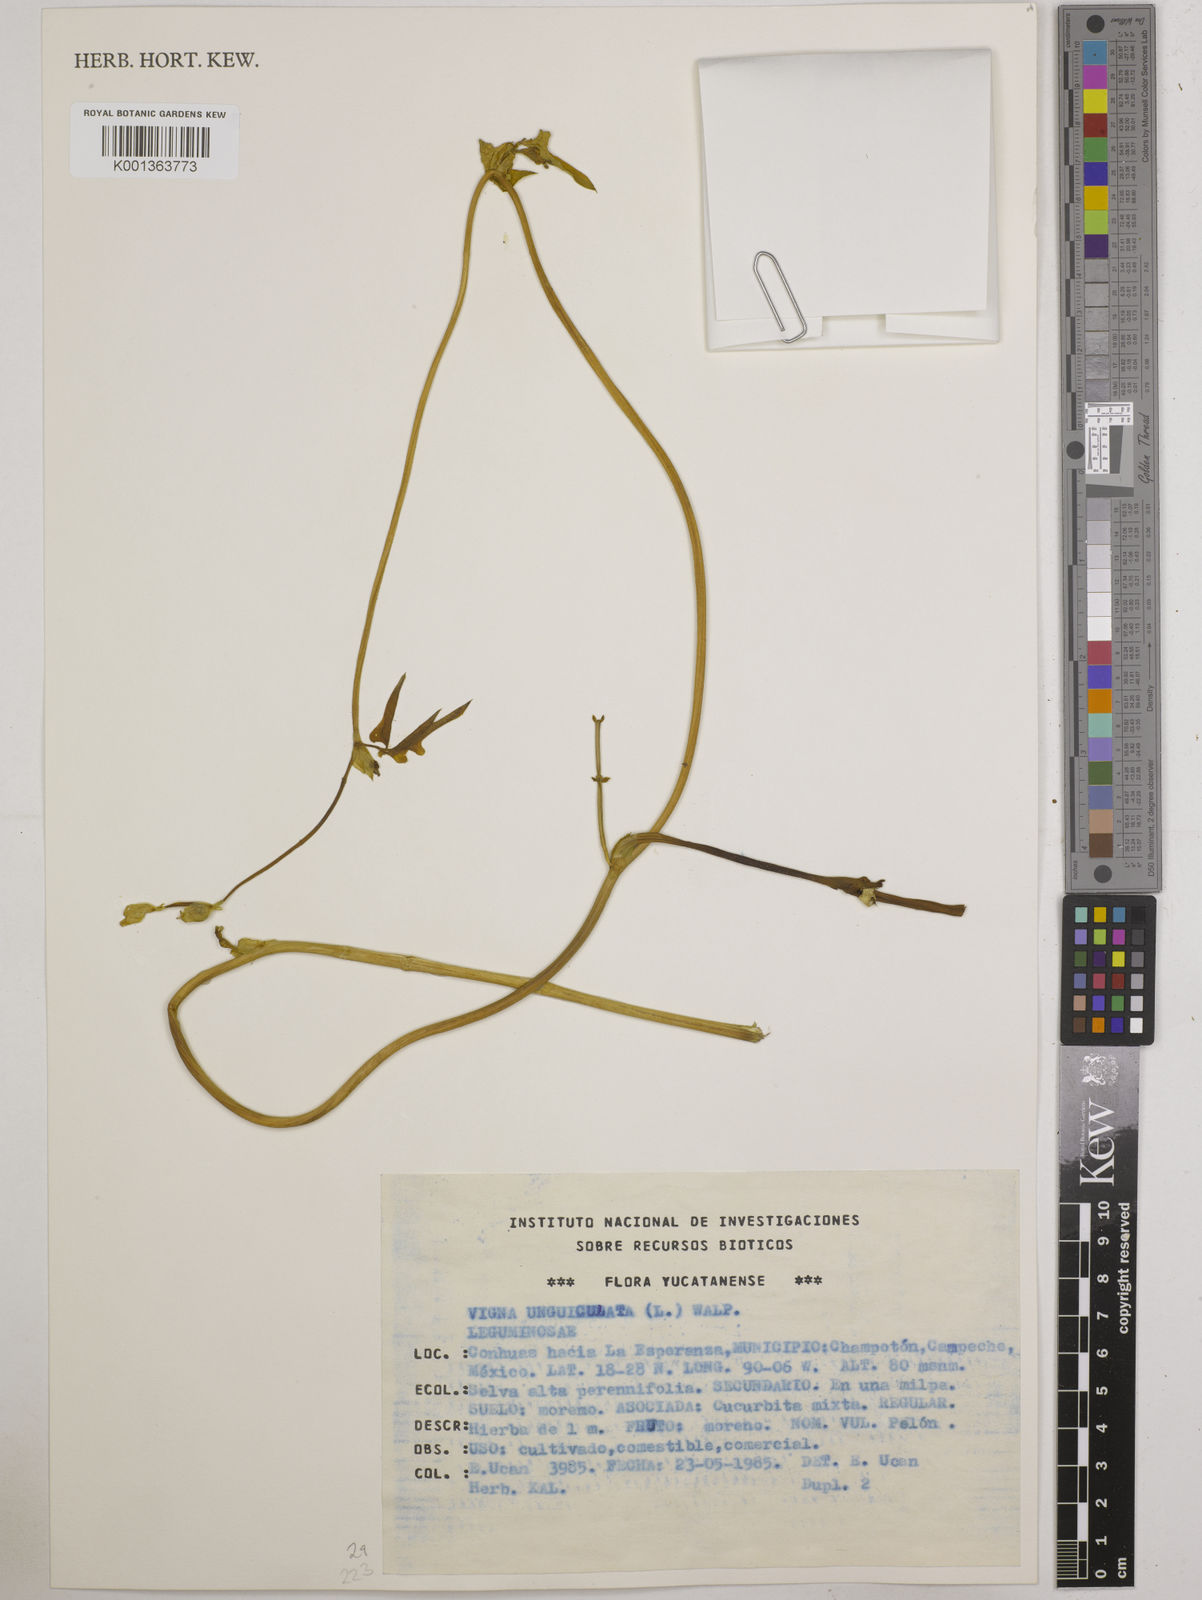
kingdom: Plantae
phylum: Tracheophyta
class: Magnoliopsida
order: Fabales
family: Fabaceae
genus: Vigna
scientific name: Vigna unguiculata
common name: Cowpea
